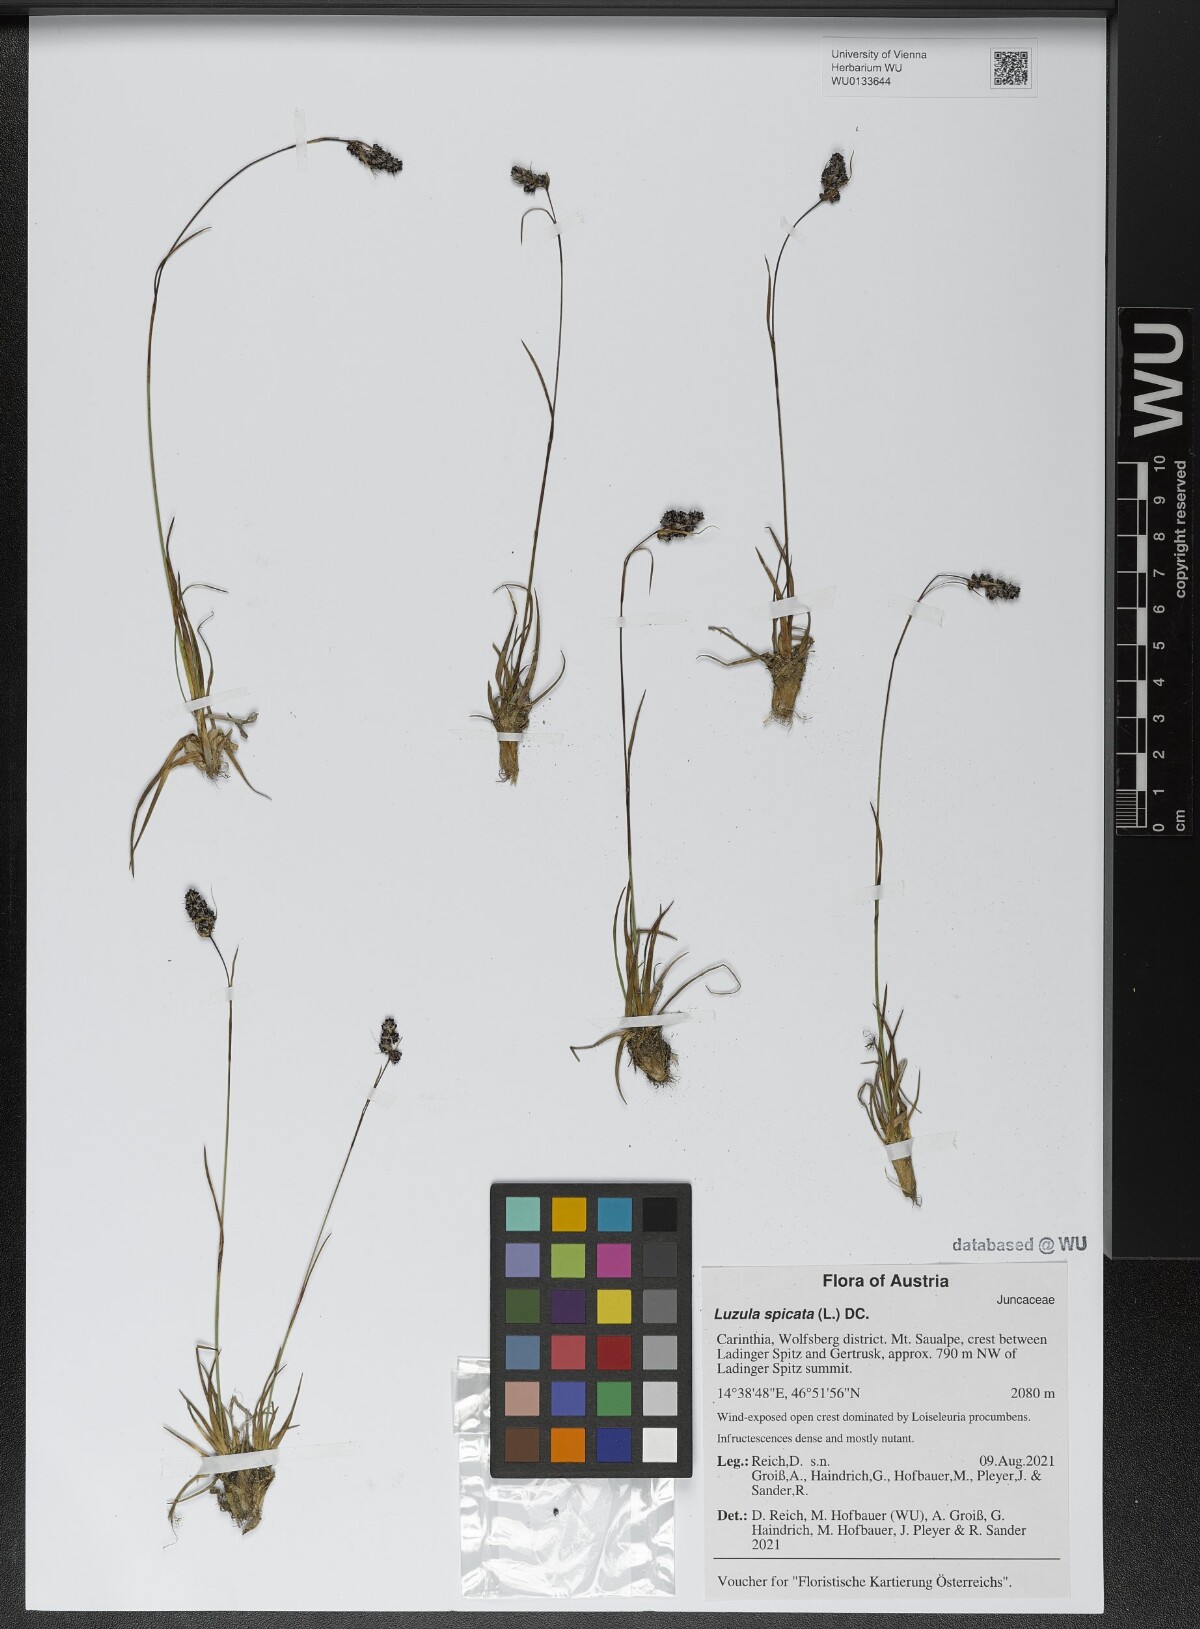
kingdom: Plantae
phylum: Tracheophyta
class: Liliopsida
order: Poales
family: Juncaceae
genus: Luzula
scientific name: Luzula spicata
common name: Spiked wood-rush
